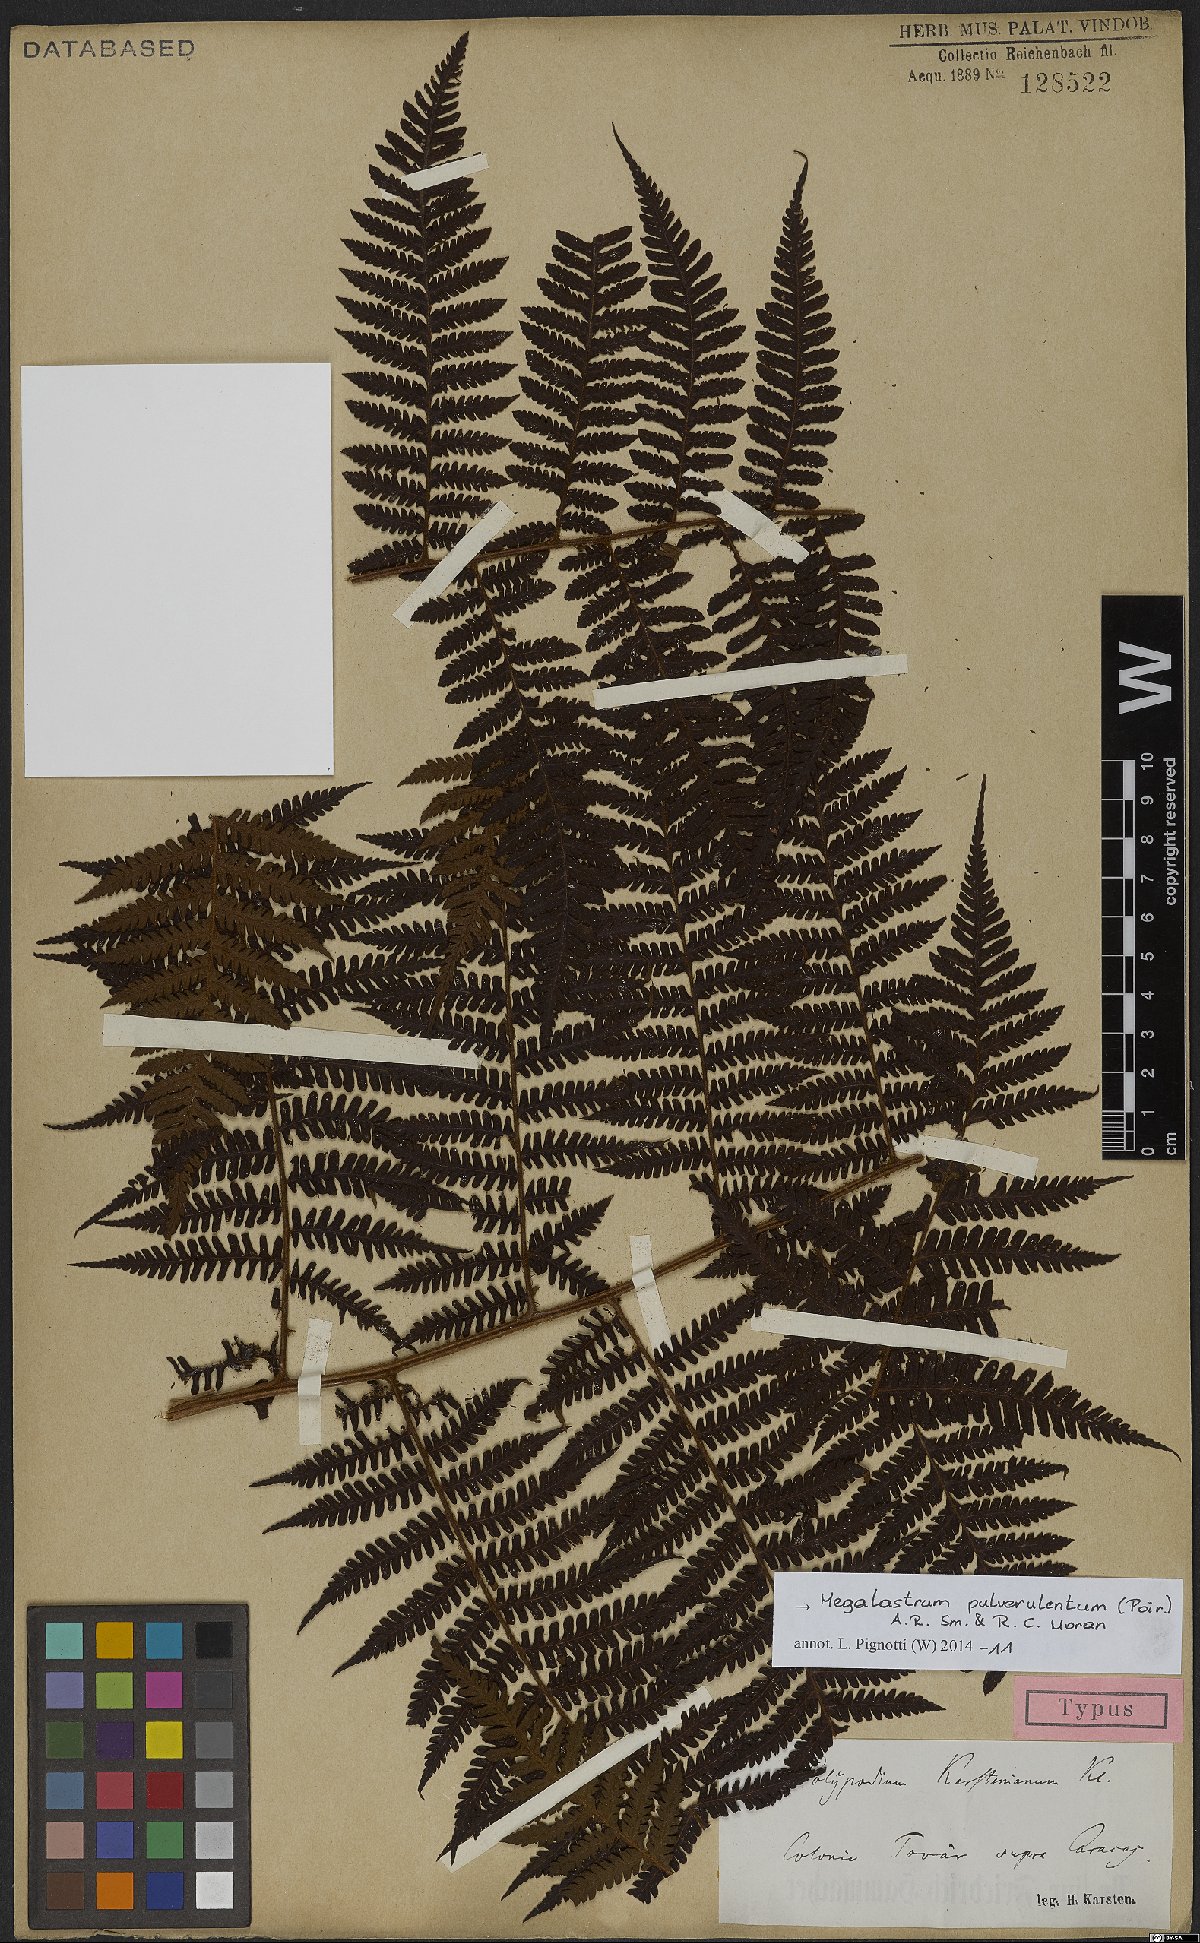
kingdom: Plantae
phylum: Tracheophyta
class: Polypodiopsida
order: Polypodiales
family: Dryopteridaceae
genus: Megalastrum
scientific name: Megalastrum pulverulentum
